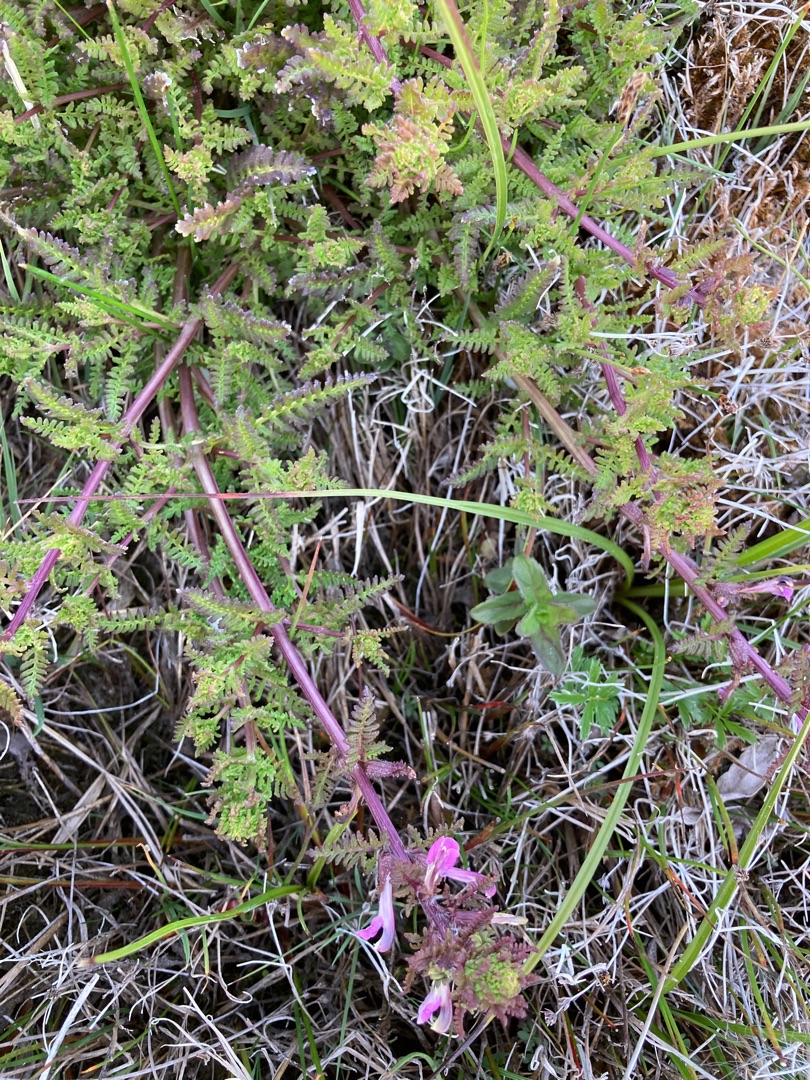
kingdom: Plantae
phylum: Tracheophyta
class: Magnoliopsida
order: Lamiales
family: Orobanchaceae
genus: Pedicularis
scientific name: Pedicularis palustris
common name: Eng-troldurt
